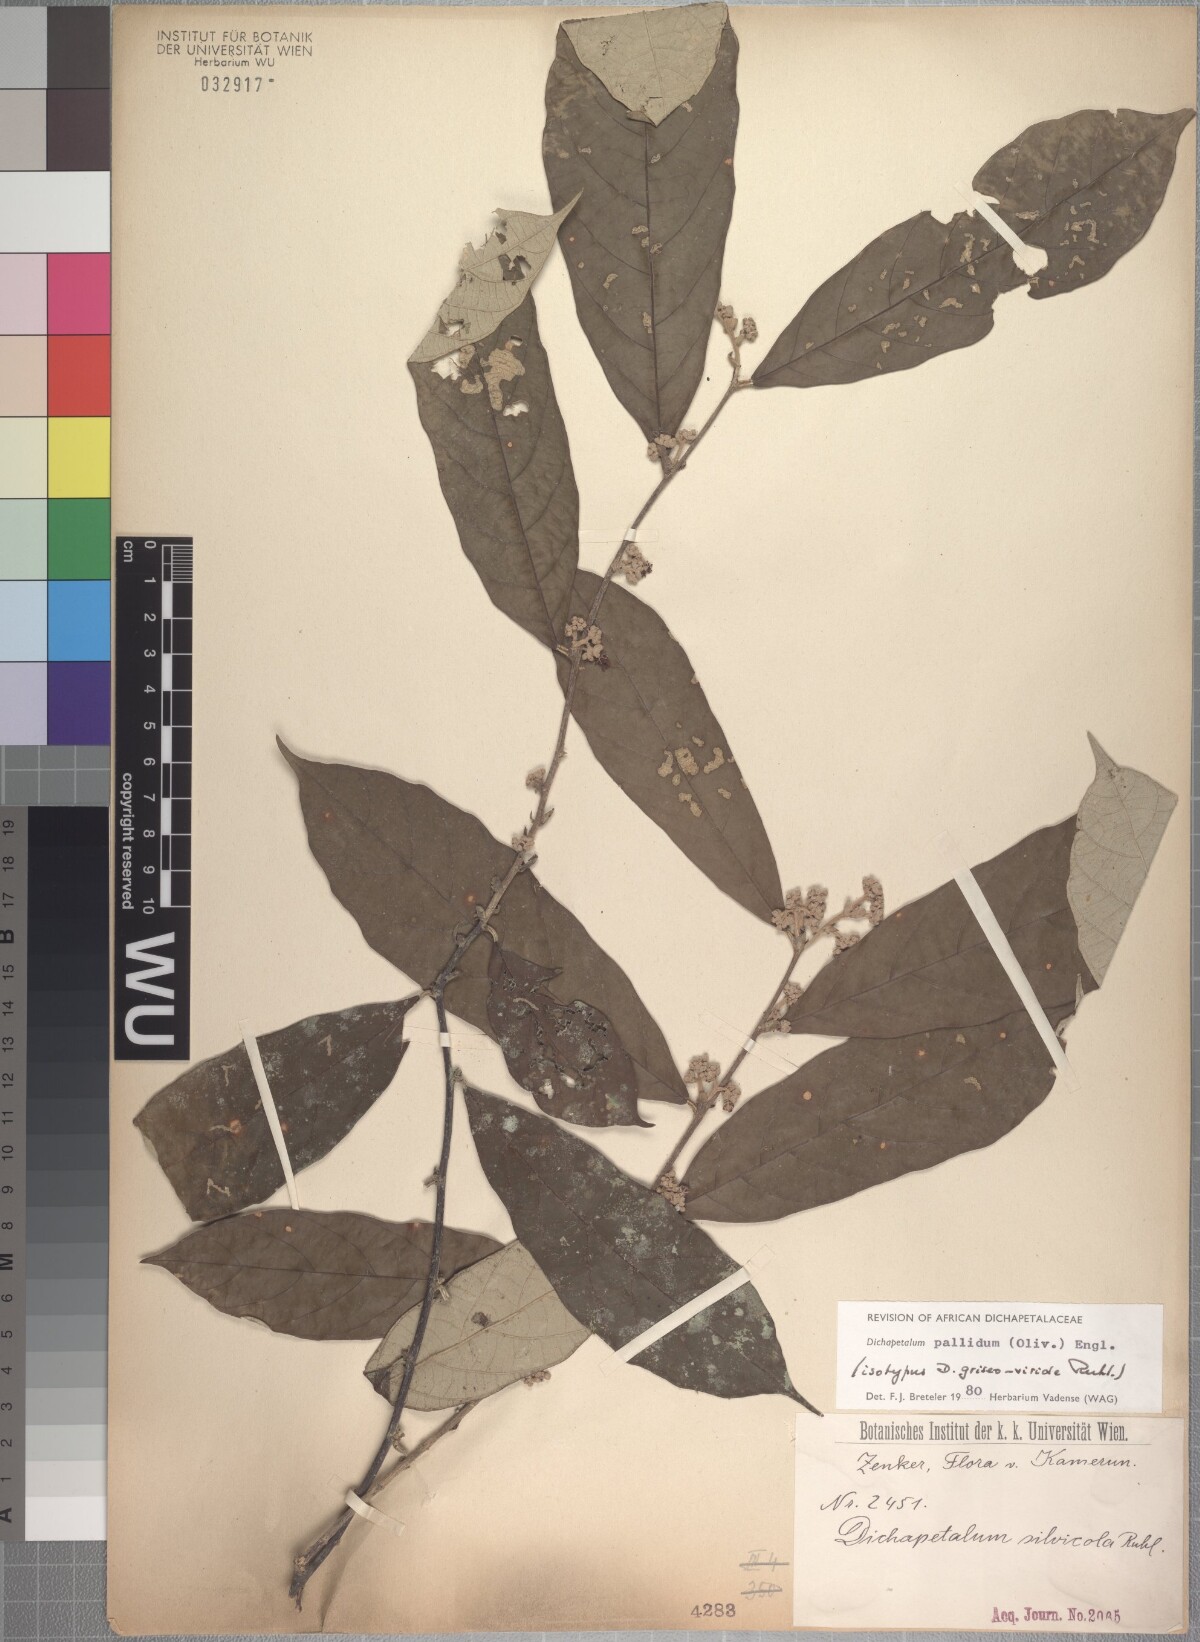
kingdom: Plantae
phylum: Tracheophyta
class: Magnoliopsida
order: Malpighiales
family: Dichapetalaceae
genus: Dichapetalum
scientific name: Dichapetalum pallidum
